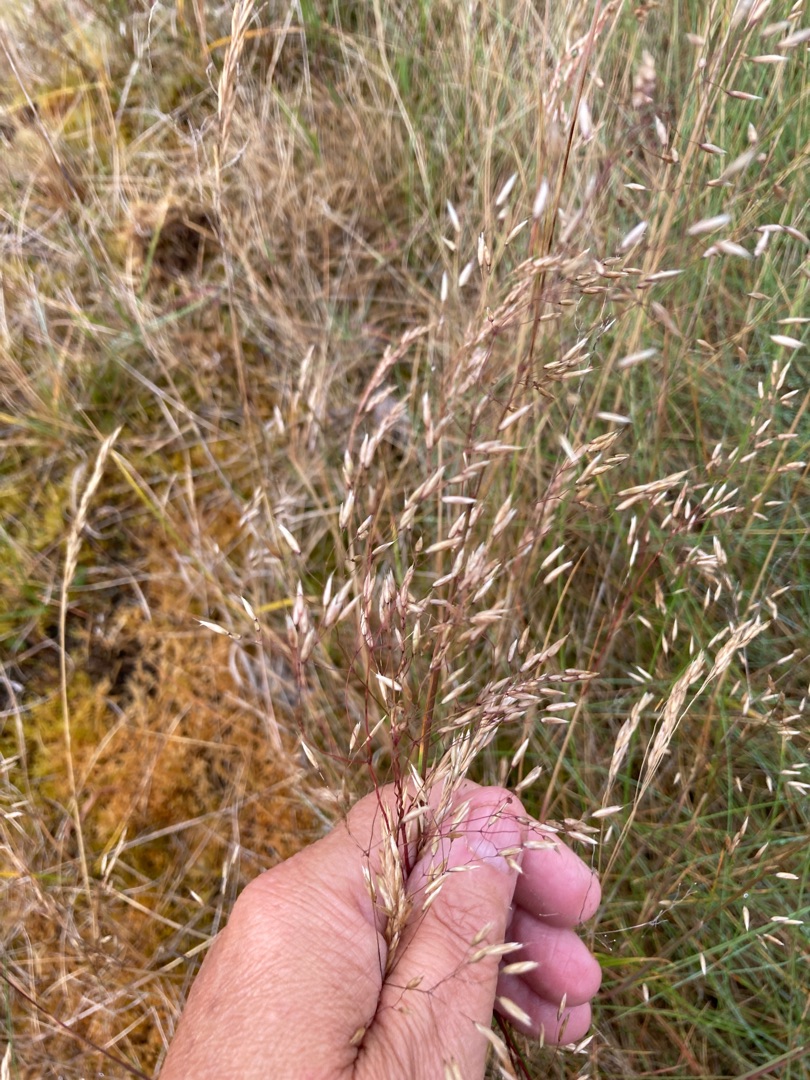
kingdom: Plantae
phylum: Tracheophyta
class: Liliopsida
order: Poales
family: Poaceae
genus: Avenella
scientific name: Avenella flexuosa
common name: Bølget bunke
